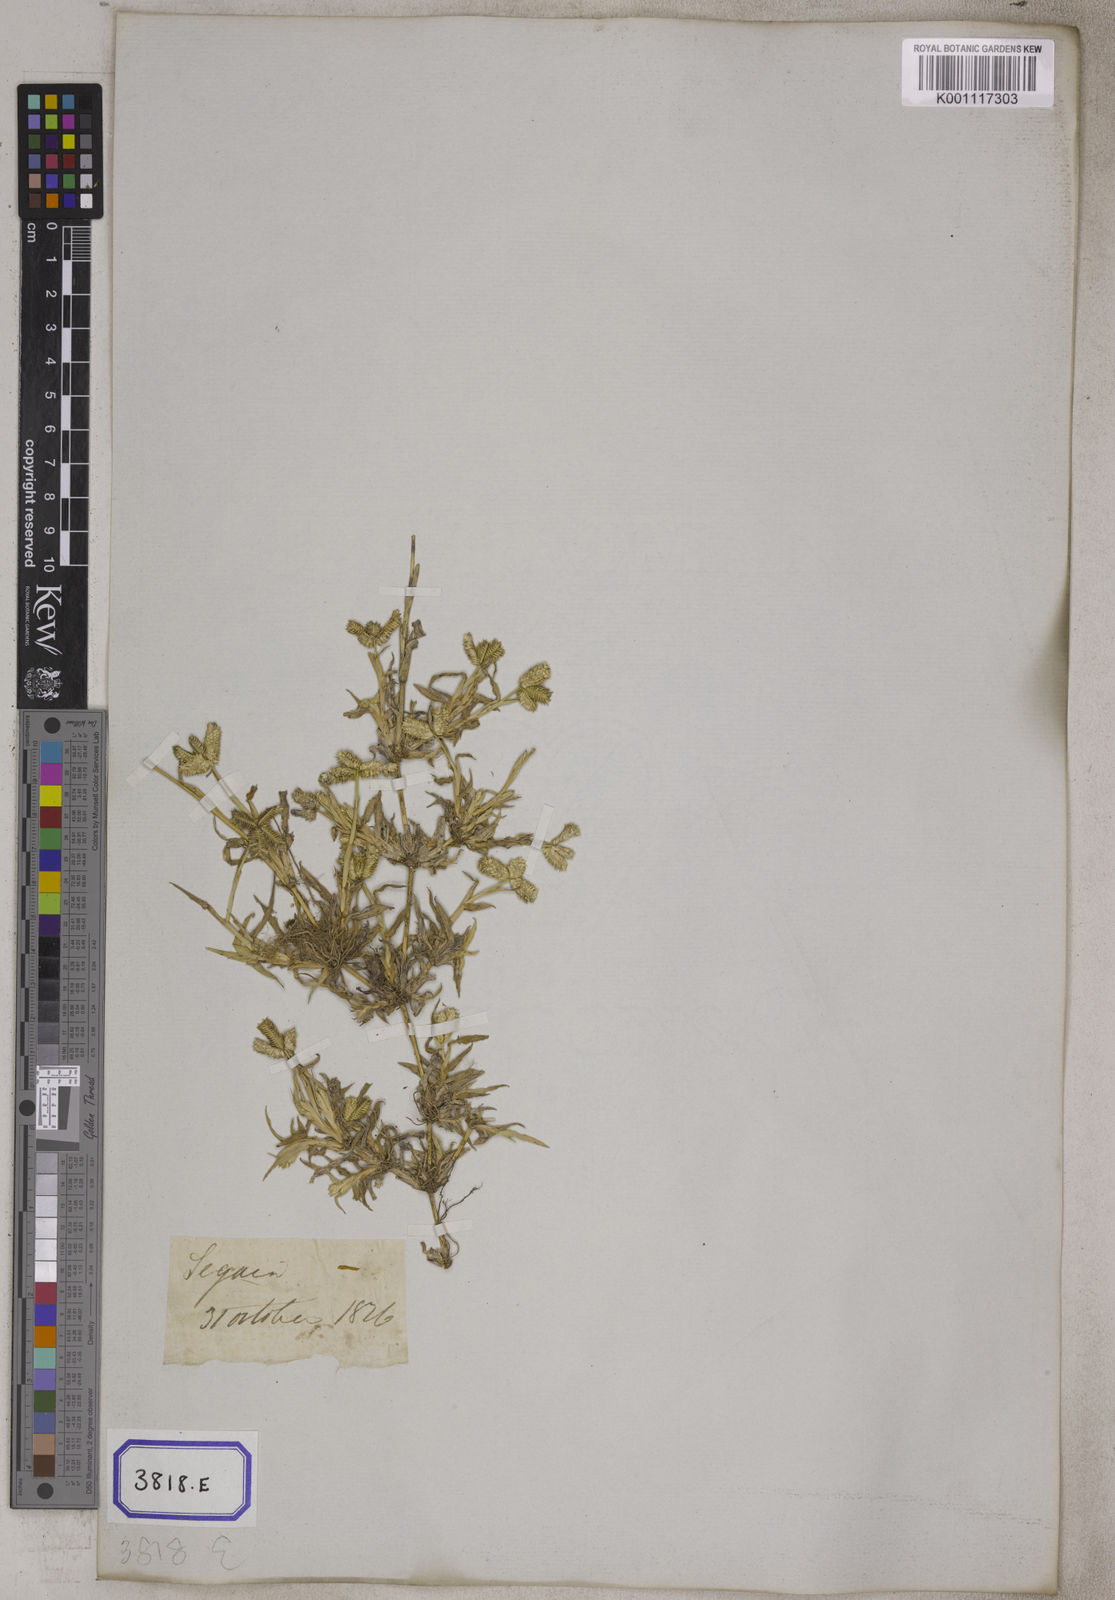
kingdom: Plantae
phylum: Tracheophyta
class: Liliopsida
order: Poales
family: Poaceae
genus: Eleusine
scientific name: Eleusine
